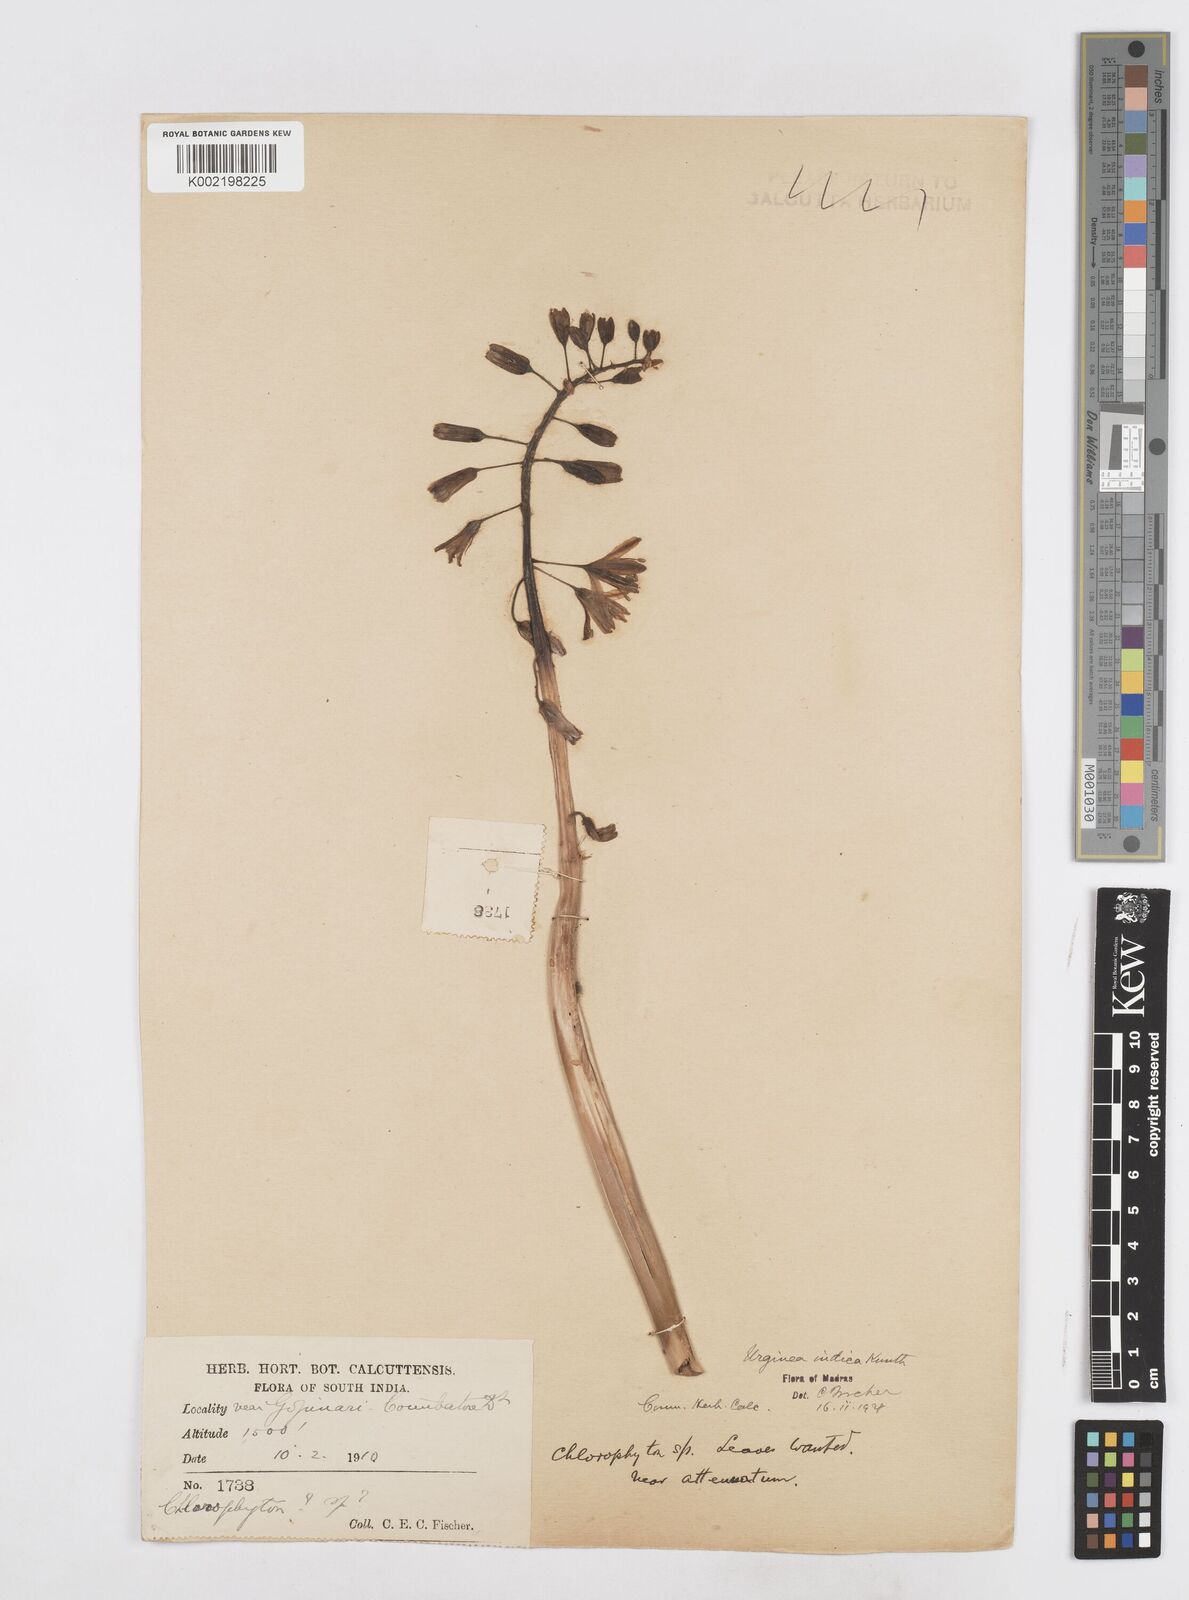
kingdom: Plantae
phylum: Tracheophyta
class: Liliopsida
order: Asparagales
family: Asparagaceae
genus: Drimia
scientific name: Drimia indica
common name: Indian-squill
